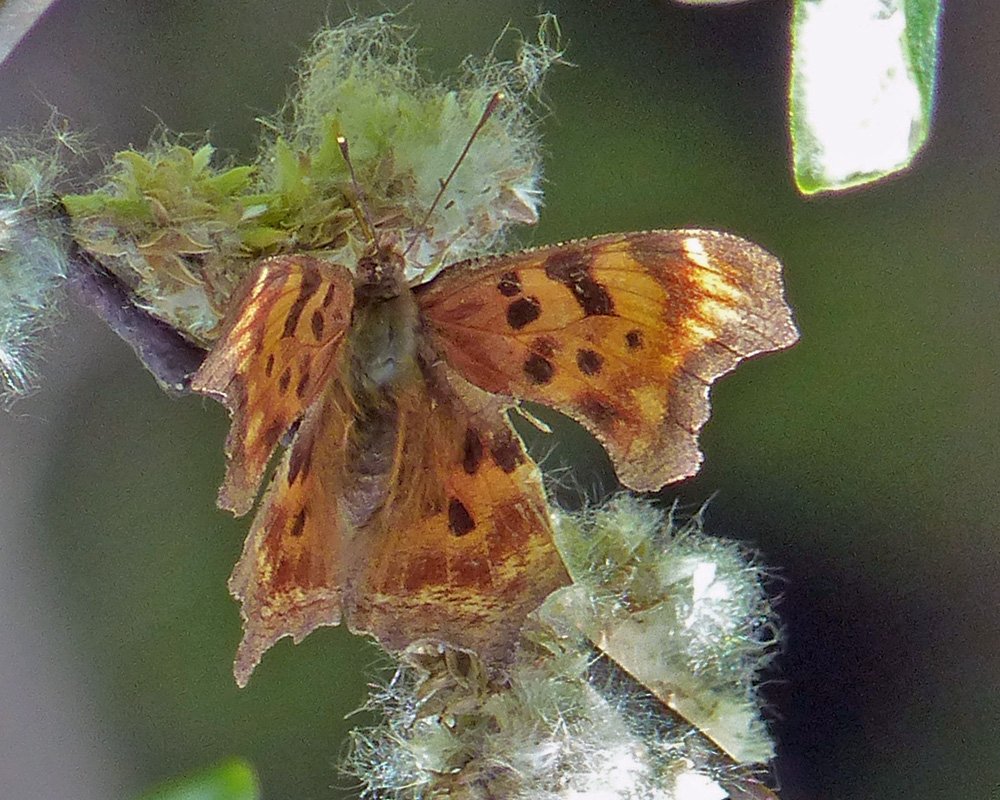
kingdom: Animalia
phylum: Arthropoda
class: Insecta
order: Lepidoptera
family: Nymphalidae
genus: Polygonia
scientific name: Polygonia satyrus
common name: Satyr Comma
